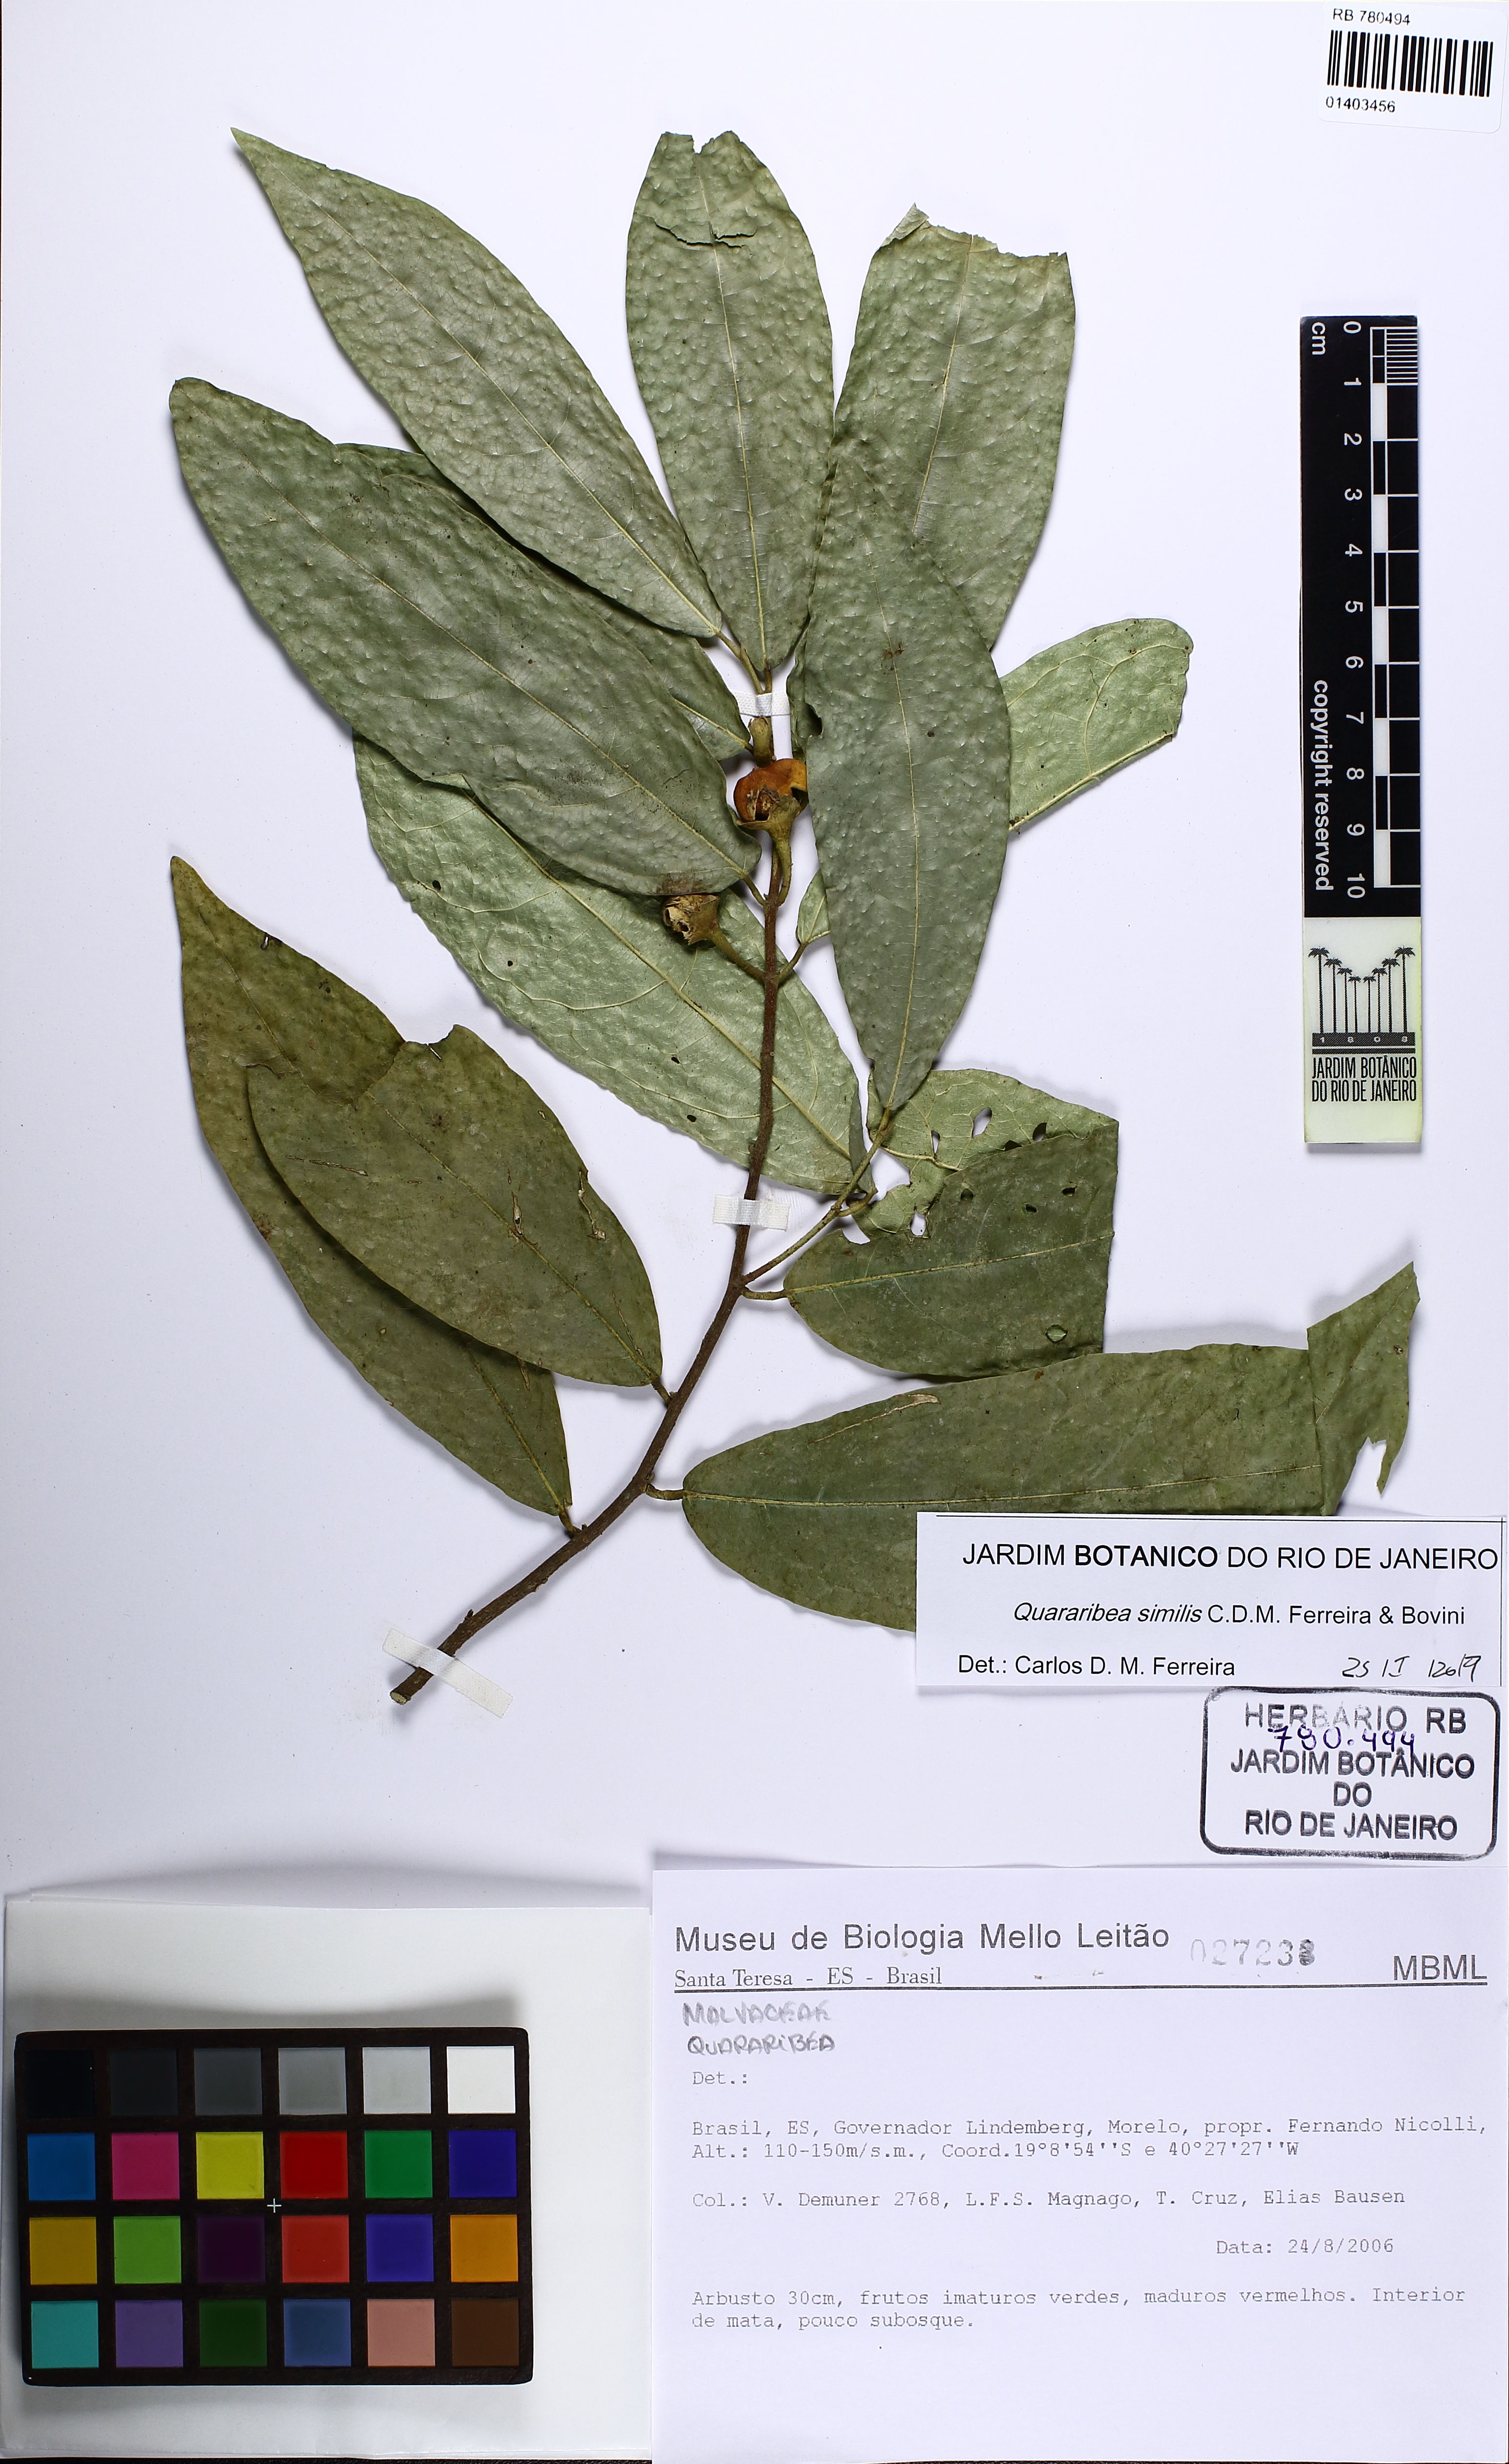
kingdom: Plantae
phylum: Tracheophyta
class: Magnoliopsida
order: Malvales
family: Malvaceae
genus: Quararibea
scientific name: Quararibea similis
